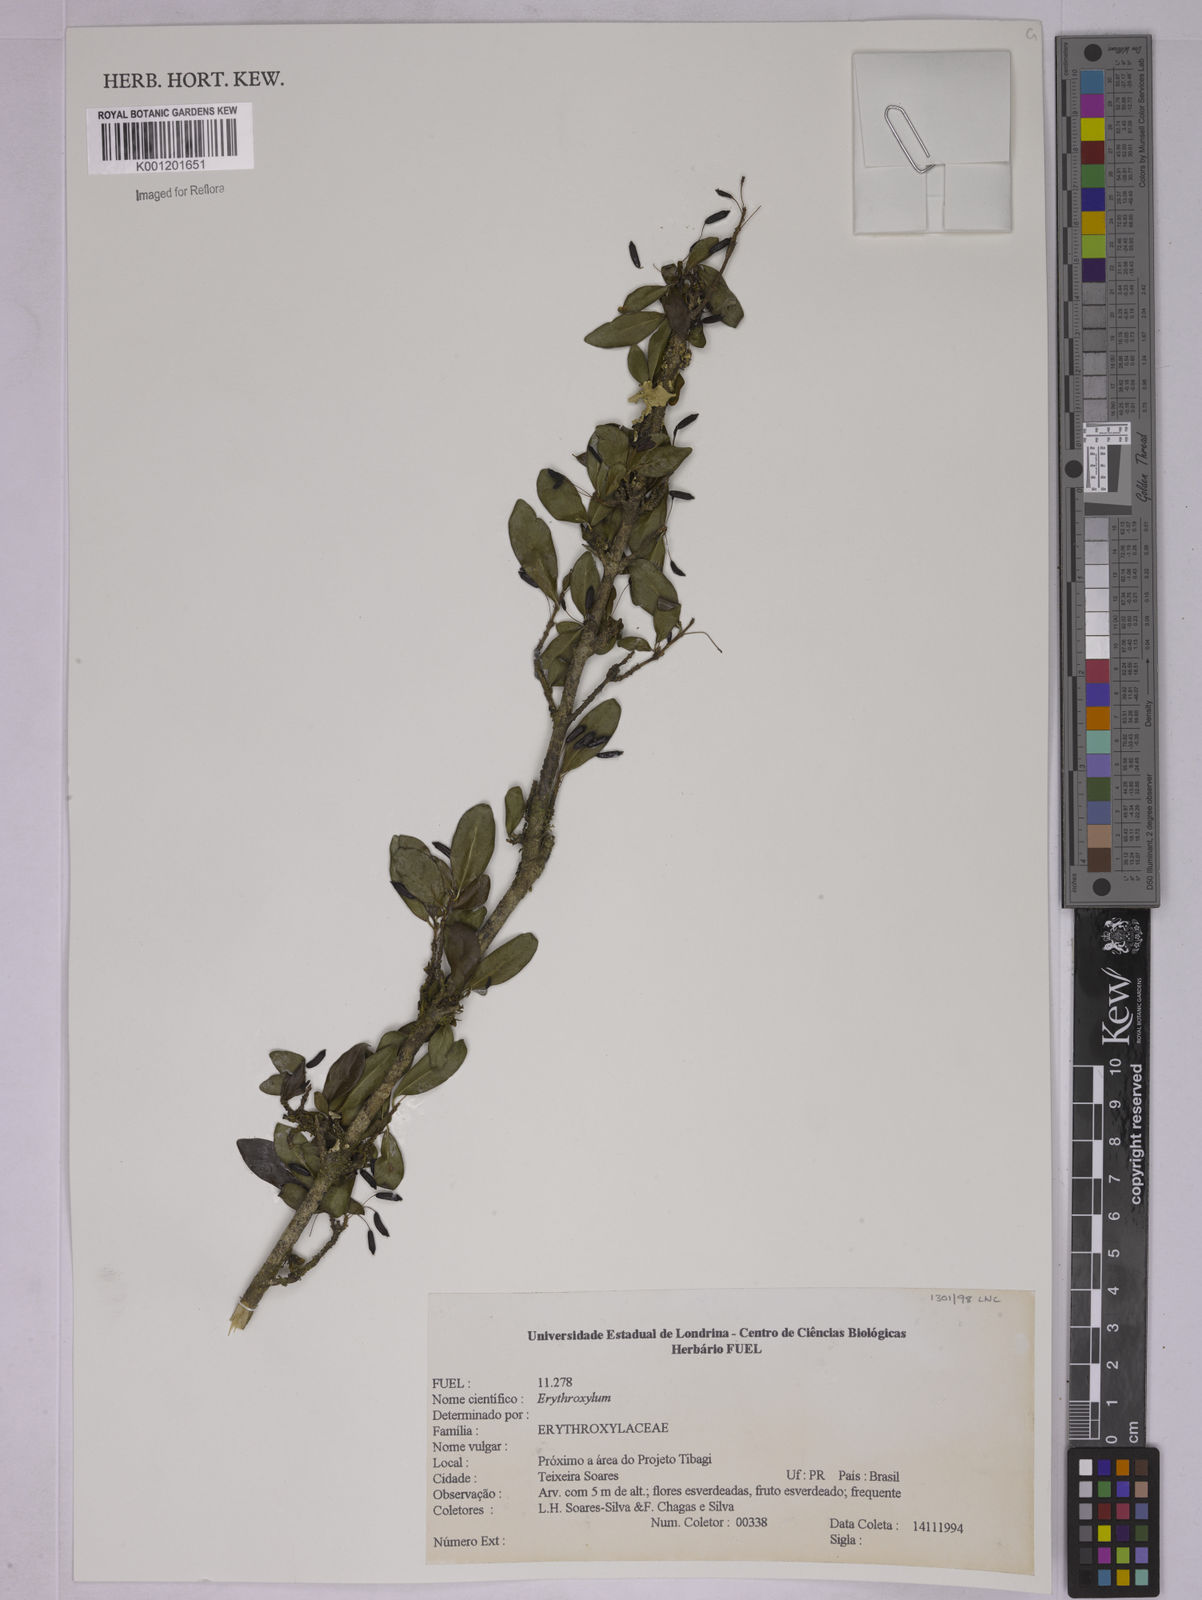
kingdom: Plantae
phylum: Tracheophyta
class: Magnoliopsida
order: Malpighiales
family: Erythroxylaceae
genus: Erythroxylum
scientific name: Erythroxylum
